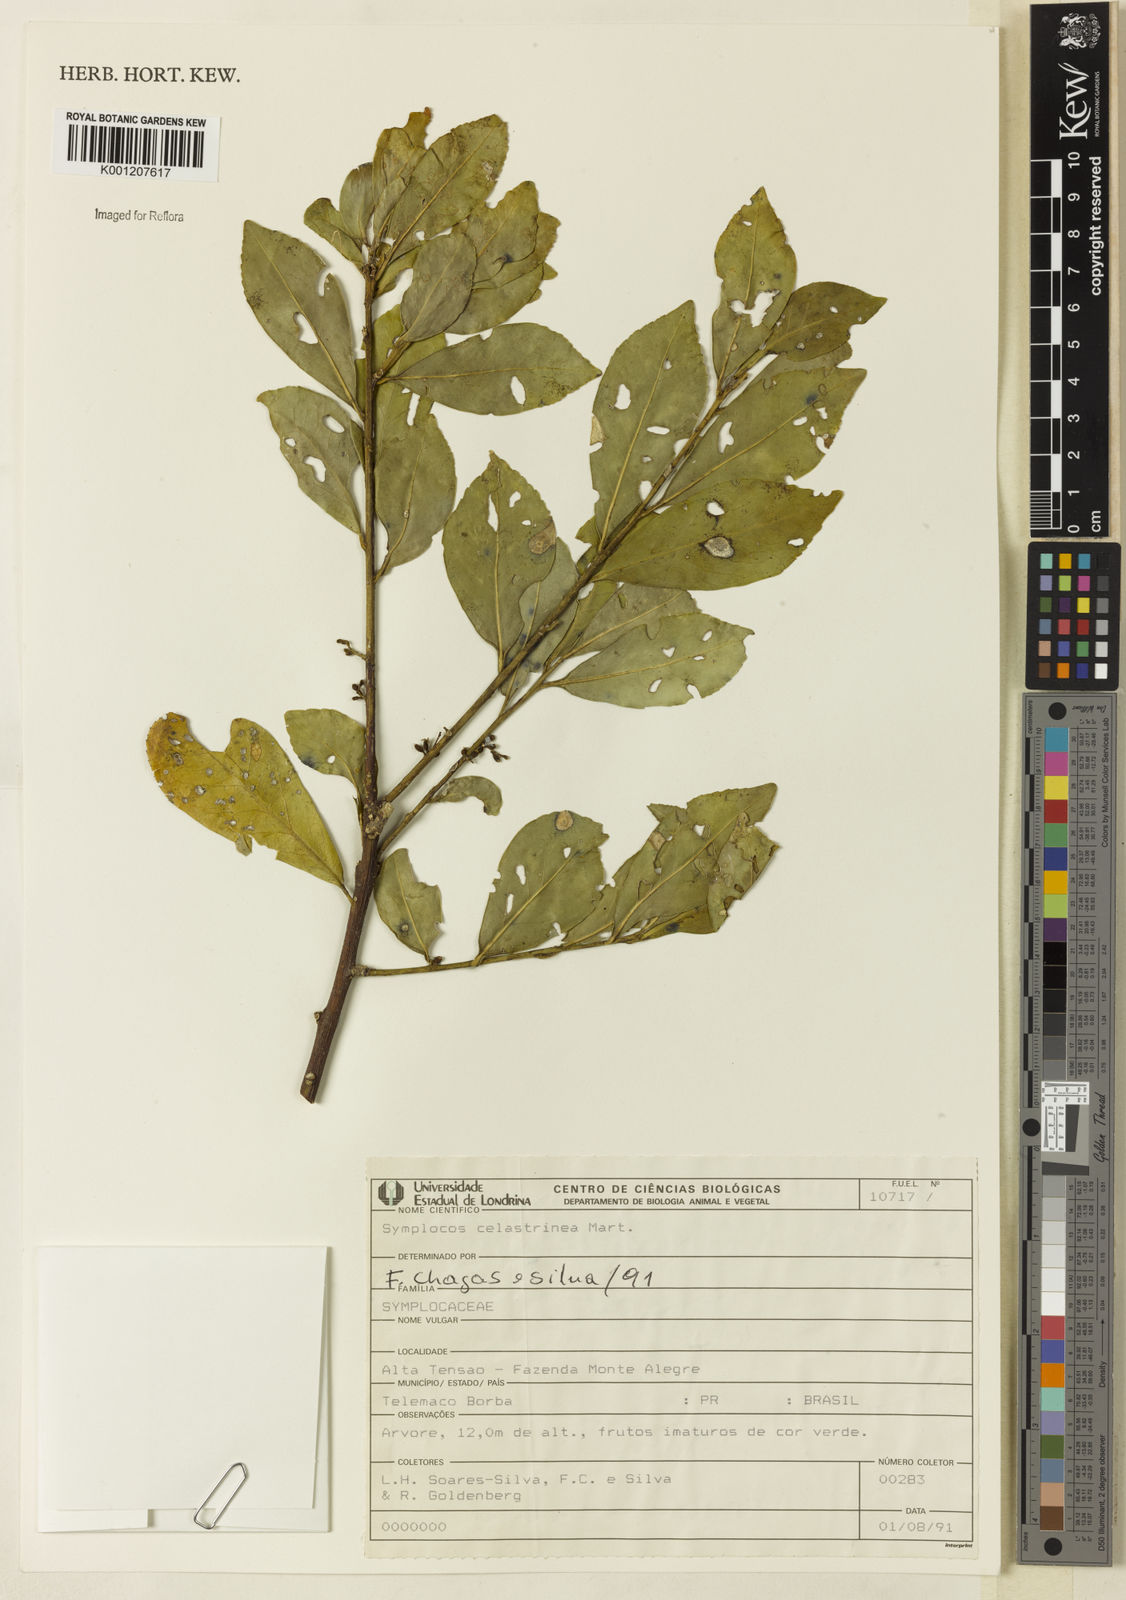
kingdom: Plantae
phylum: Tracheophyta
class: Magnoliopsida
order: Ericales
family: Symplocaceae
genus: Symplocos
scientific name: Symplocos
